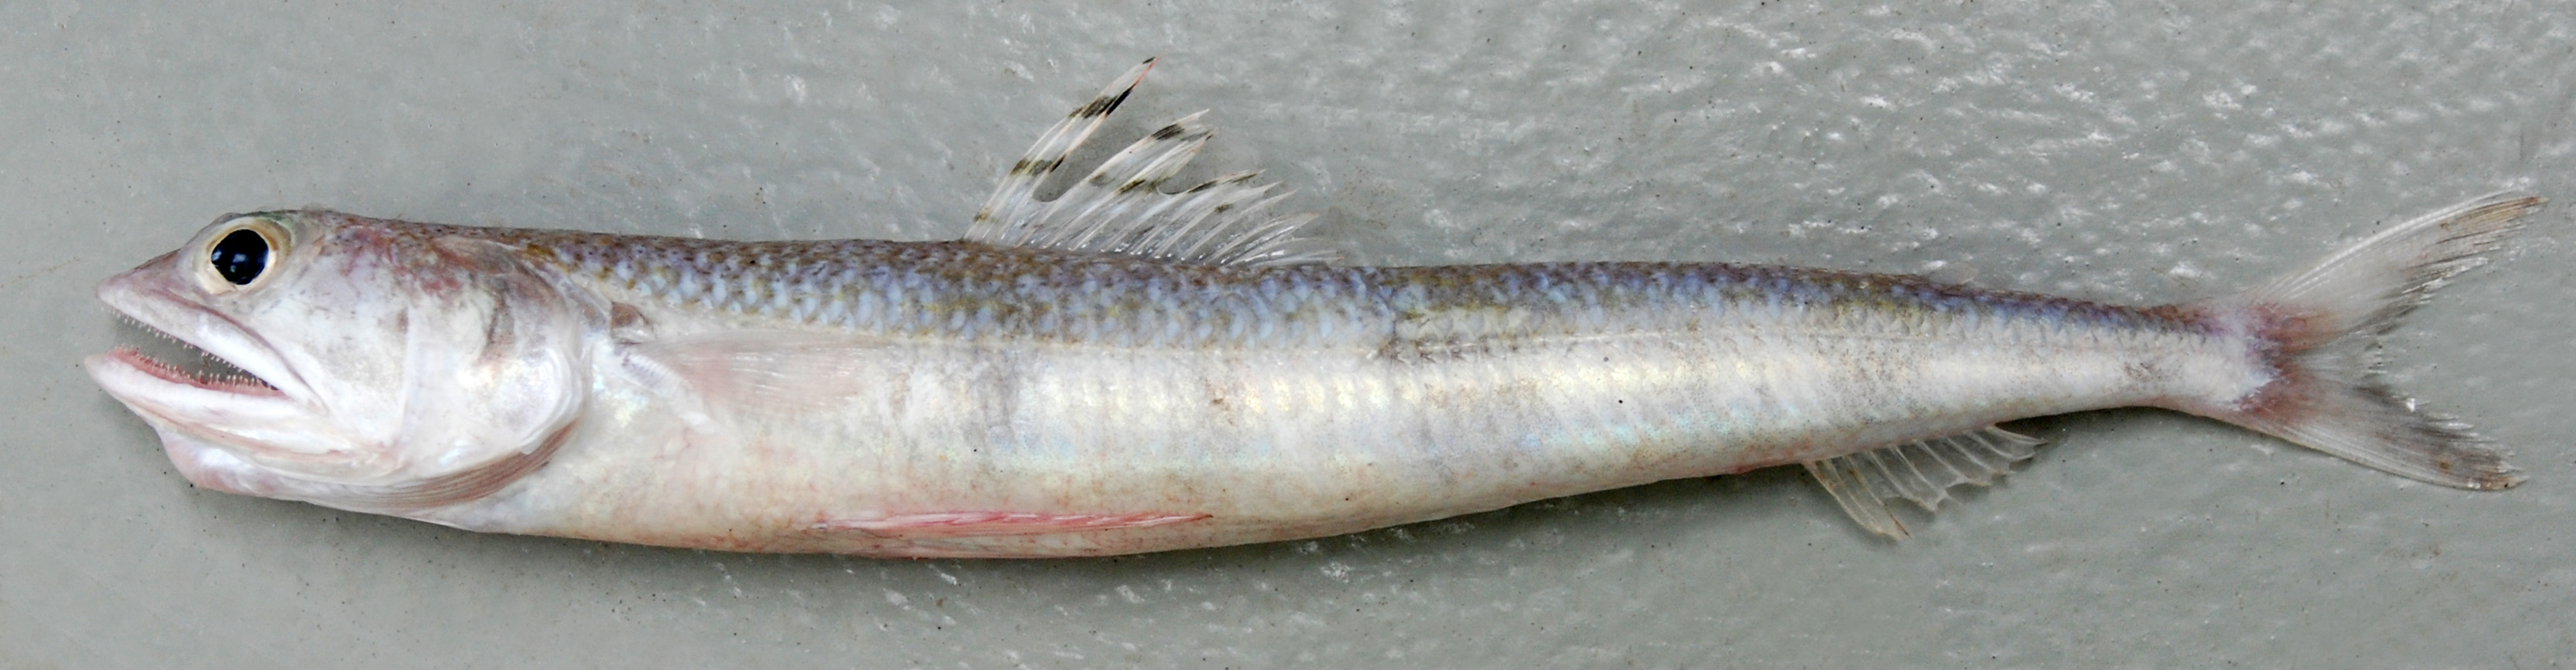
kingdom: Animalia
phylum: Chordata
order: Aulopiformes
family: Synodontidae
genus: Synodus
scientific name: Synodus macrocephalus
